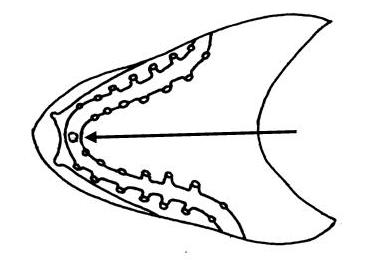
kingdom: Animalia
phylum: Chordata
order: Perciformes
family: Tripterygiidae
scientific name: Tripterygiidae
